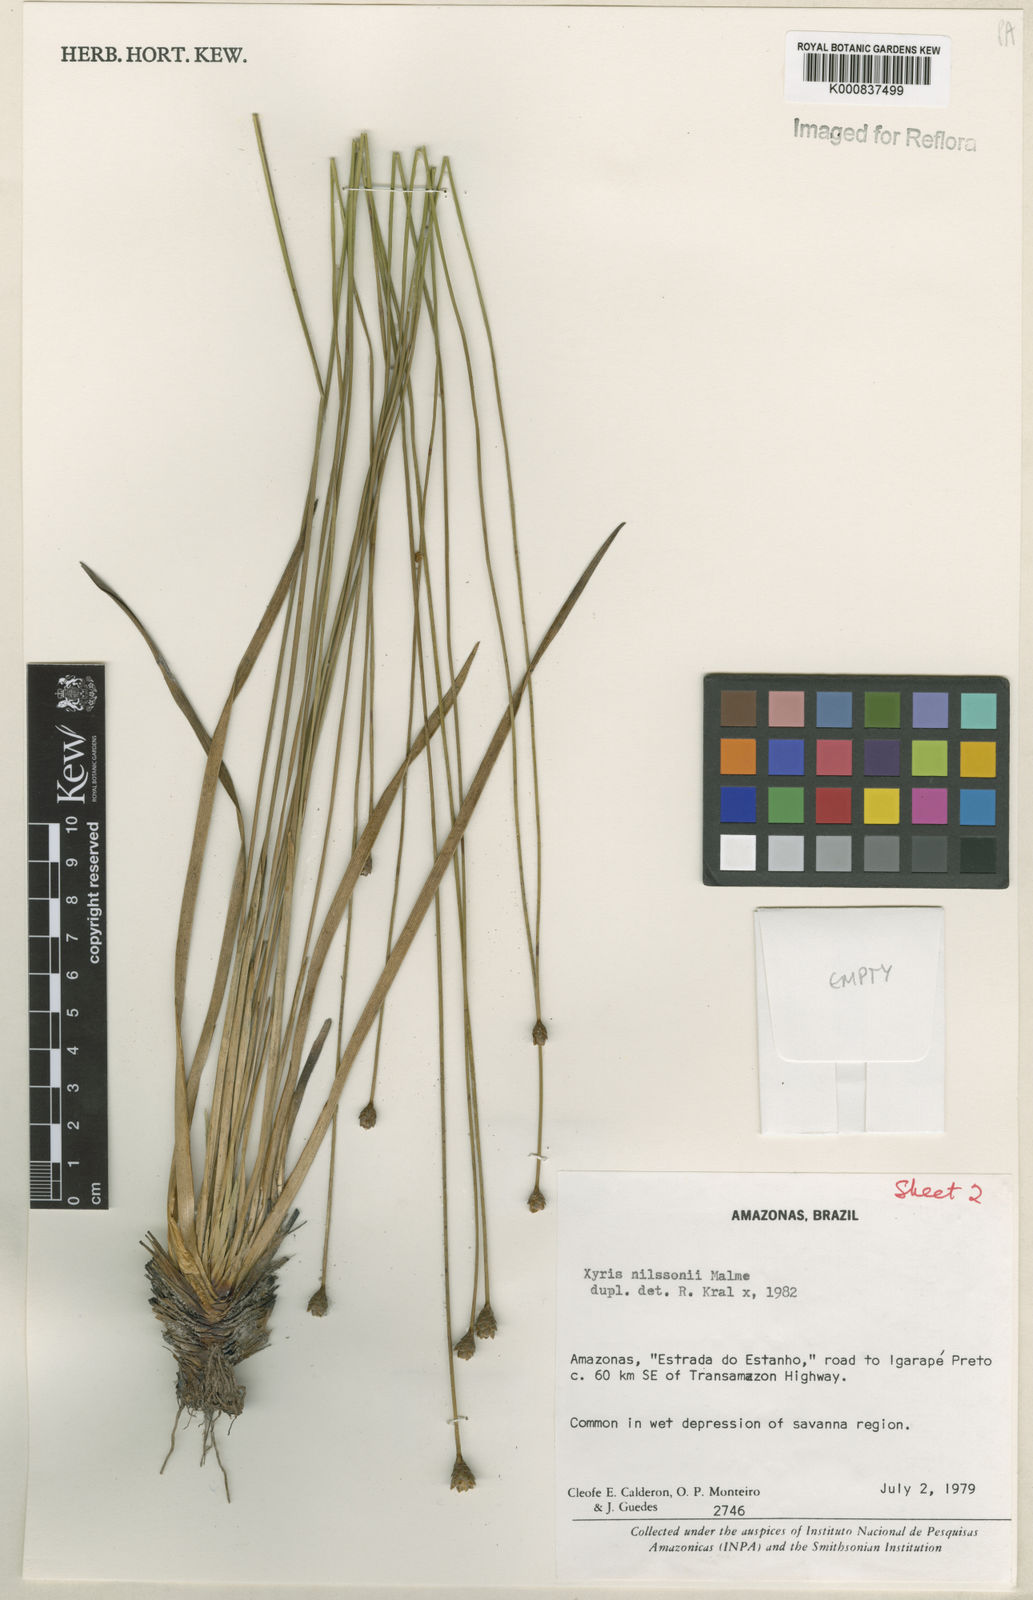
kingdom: Plantae
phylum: Tracheophyta
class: Liliopsida
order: Poales
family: Xyridaceae
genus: Xyris
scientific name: Xyris nilssonii
